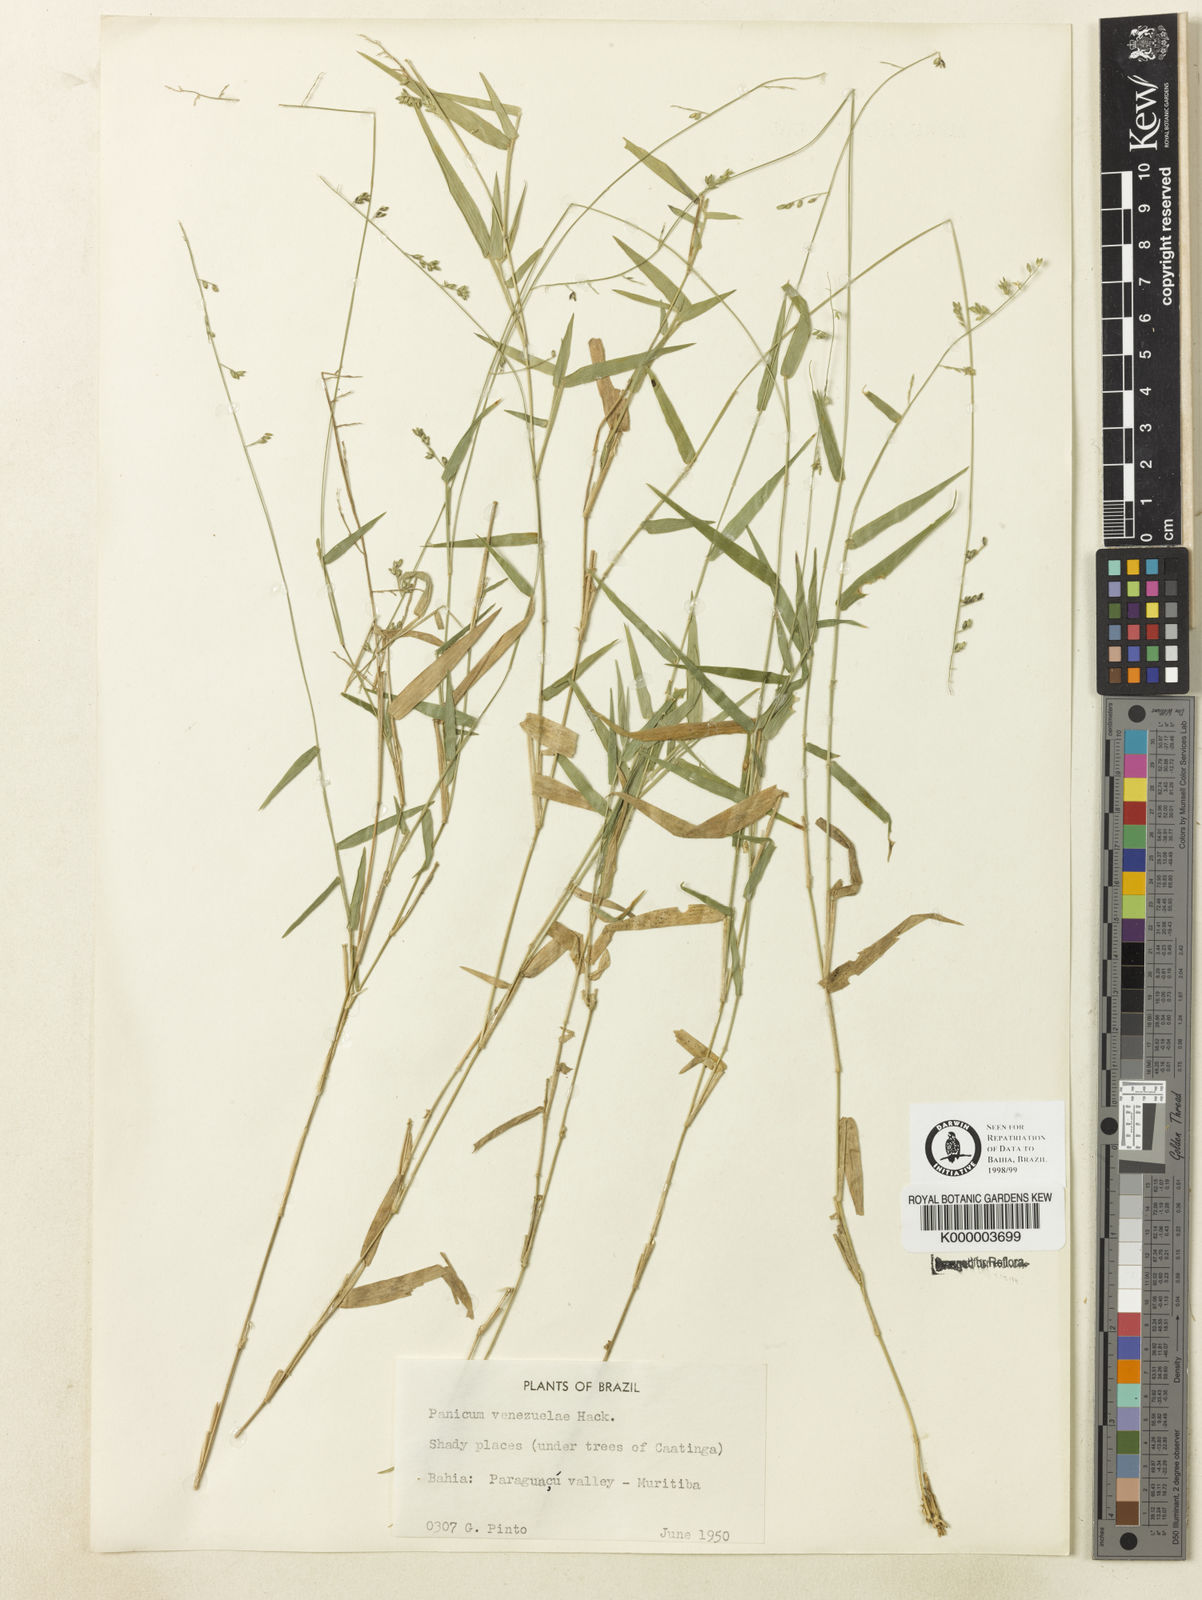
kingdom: Plantae
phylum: Tracheophyta
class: Liliopsida
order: Poales
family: Poaceae
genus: Panicum
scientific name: Panicum venezuelae
